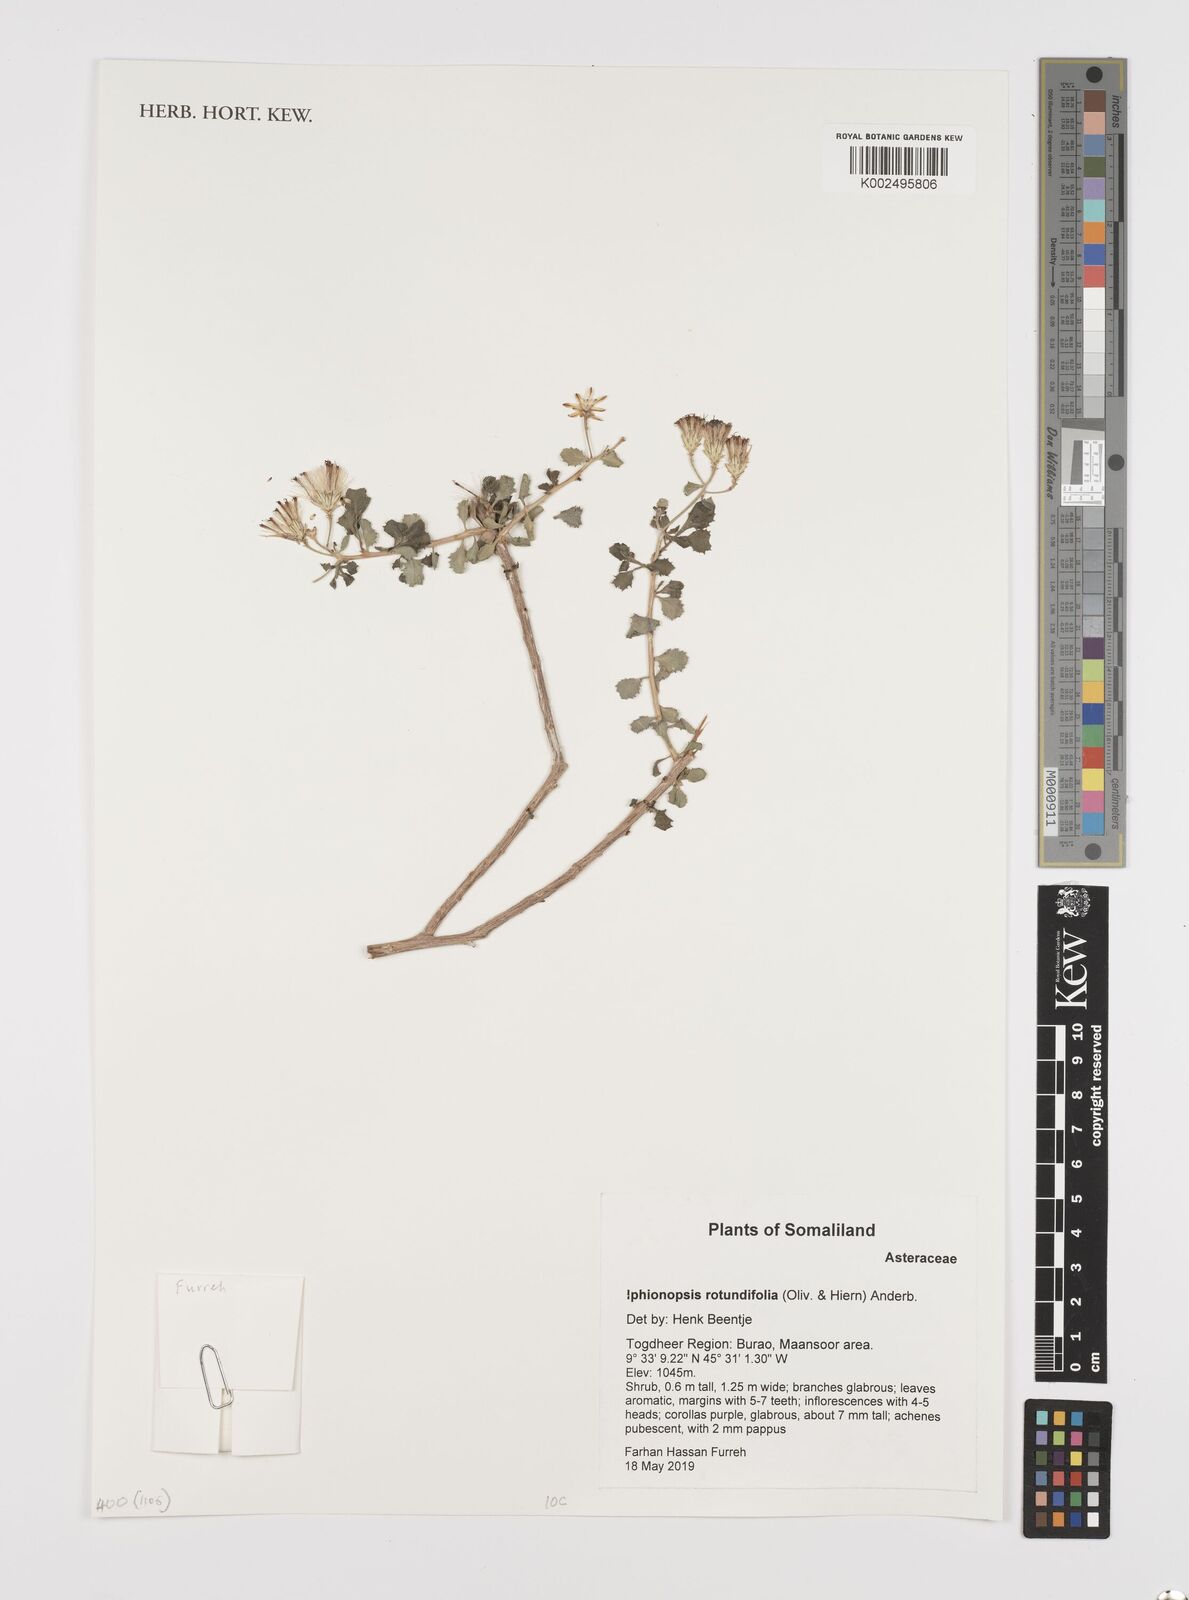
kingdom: Plantae
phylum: Tracheophyta
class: Magnoliopsida
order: Asterales
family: Asteraceae
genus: Iphionopsis
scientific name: Iphionopsis rotundifolia
